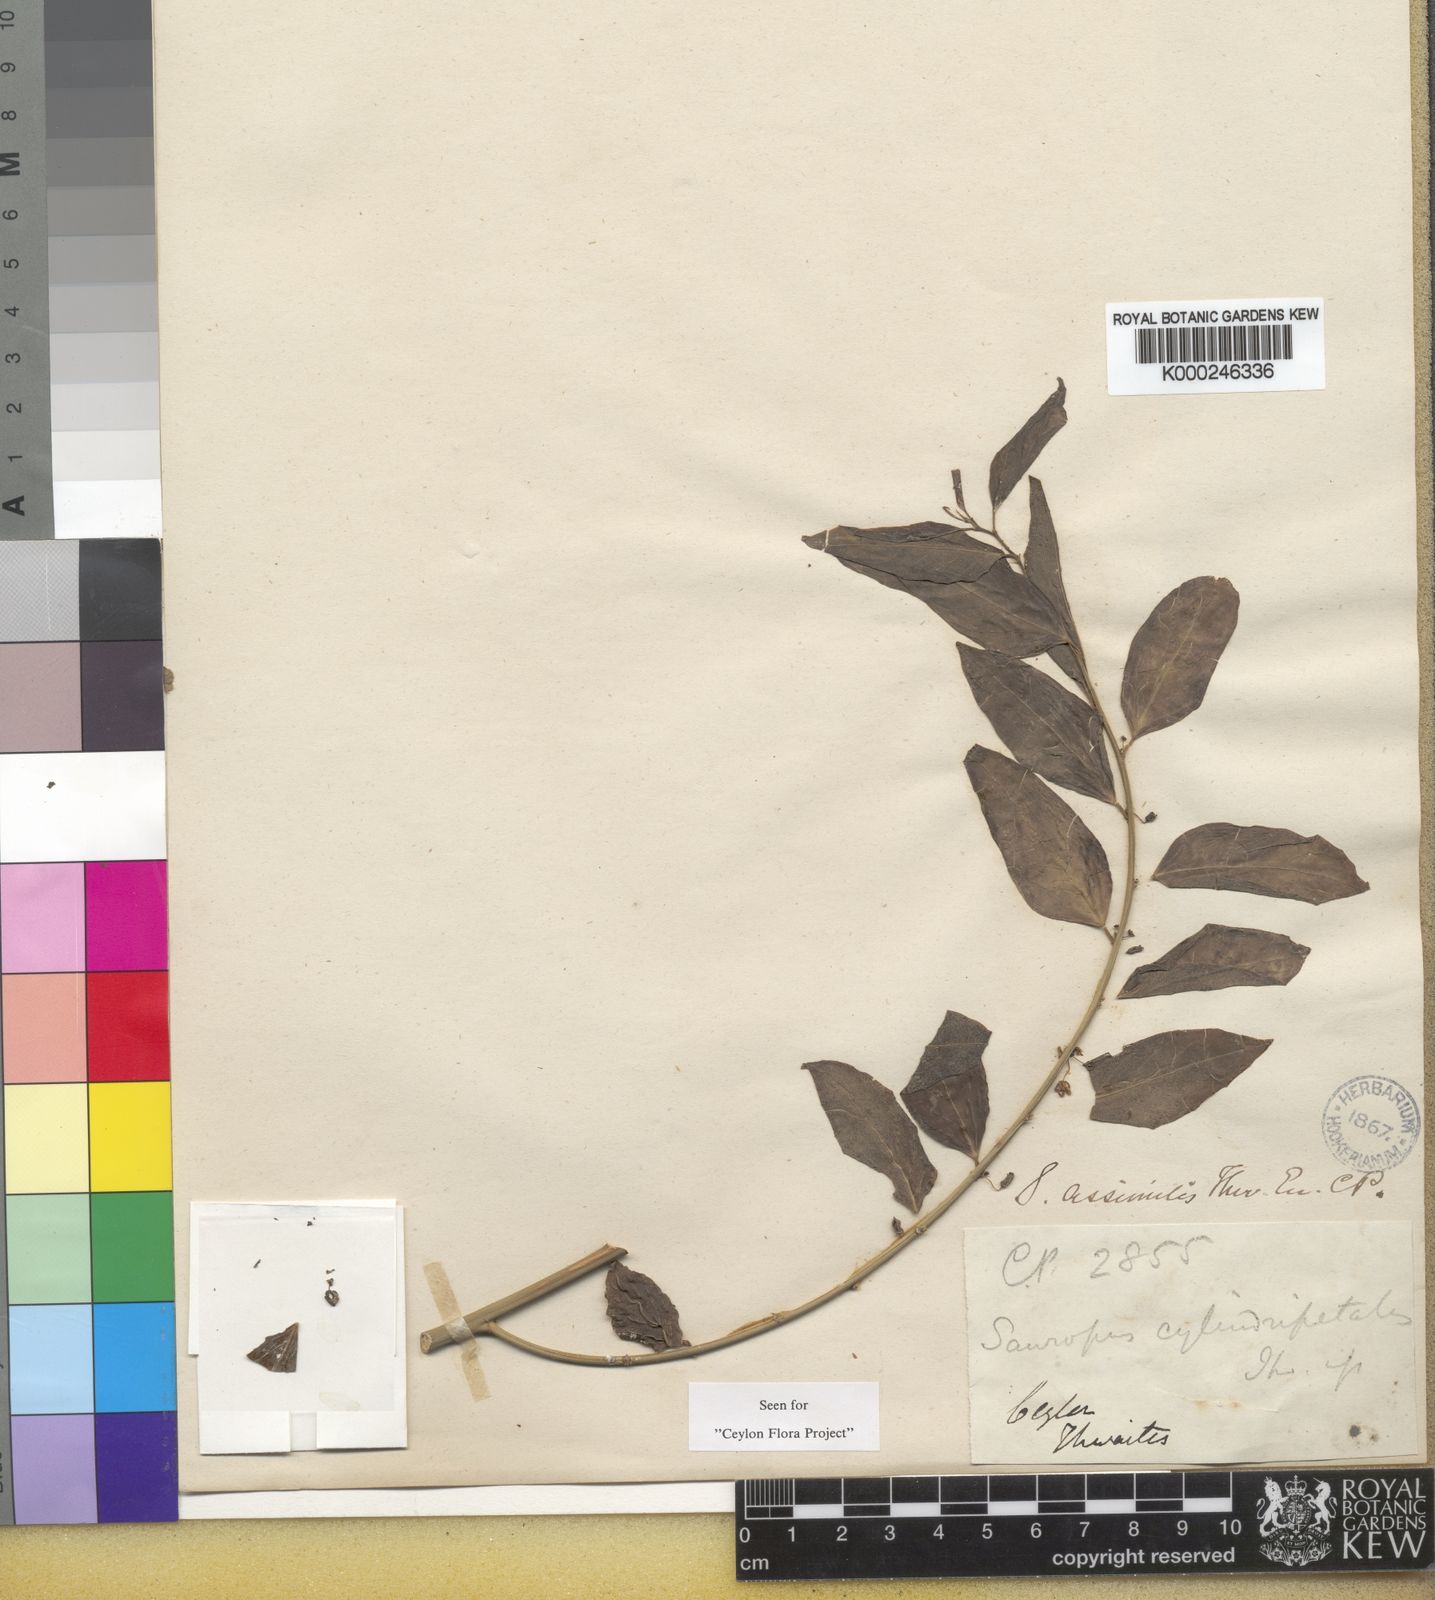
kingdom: Plantae
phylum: Tracheophyta
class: Magnoliopsida
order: Malpighiales
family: Phyllanthaceae
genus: Breynia
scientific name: Breynia assimilis
